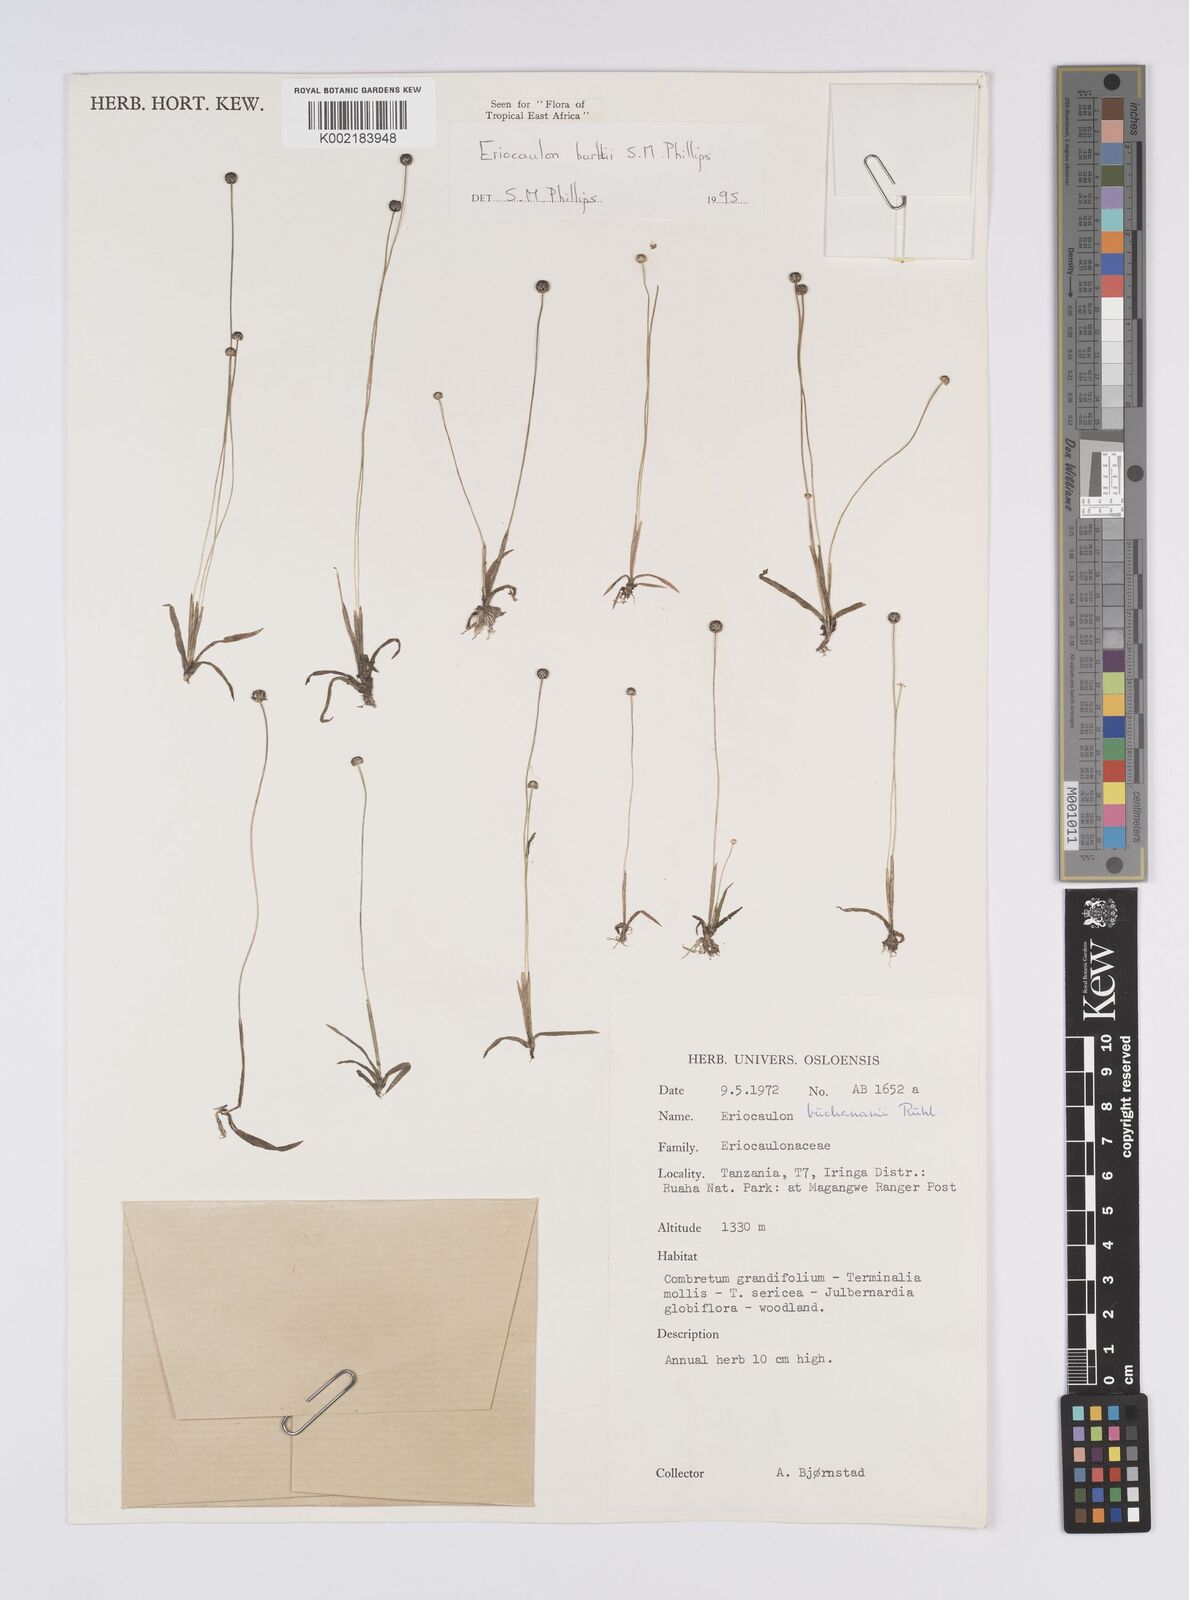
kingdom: Plantae
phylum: Tracheophyta
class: Liliopsida
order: Poales
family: Eriocaulaceae
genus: Eriocaulon
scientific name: Eriocaulon burttii
